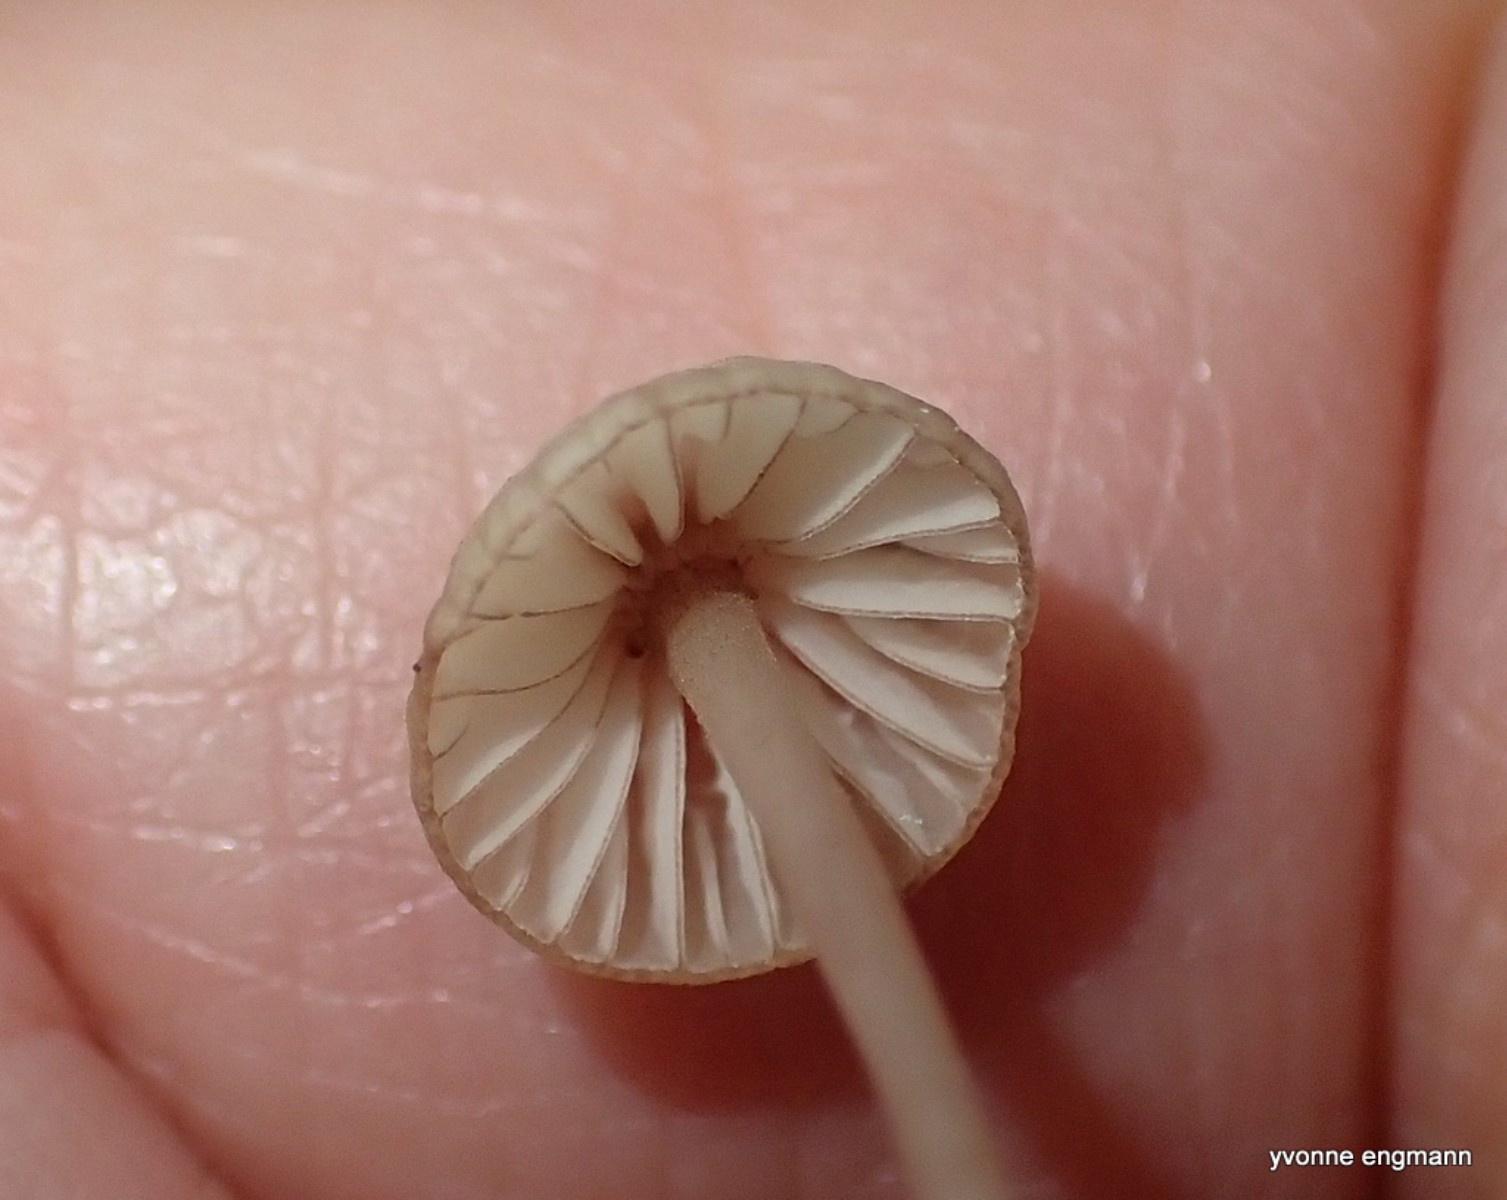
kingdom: Fungi
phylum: Basidiomycota
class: Agaricomycetes
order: Agaricales
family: Mycenaceae
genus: Mycena
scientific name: Mycena sanguinolenta
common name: rødmælket huesvamp
